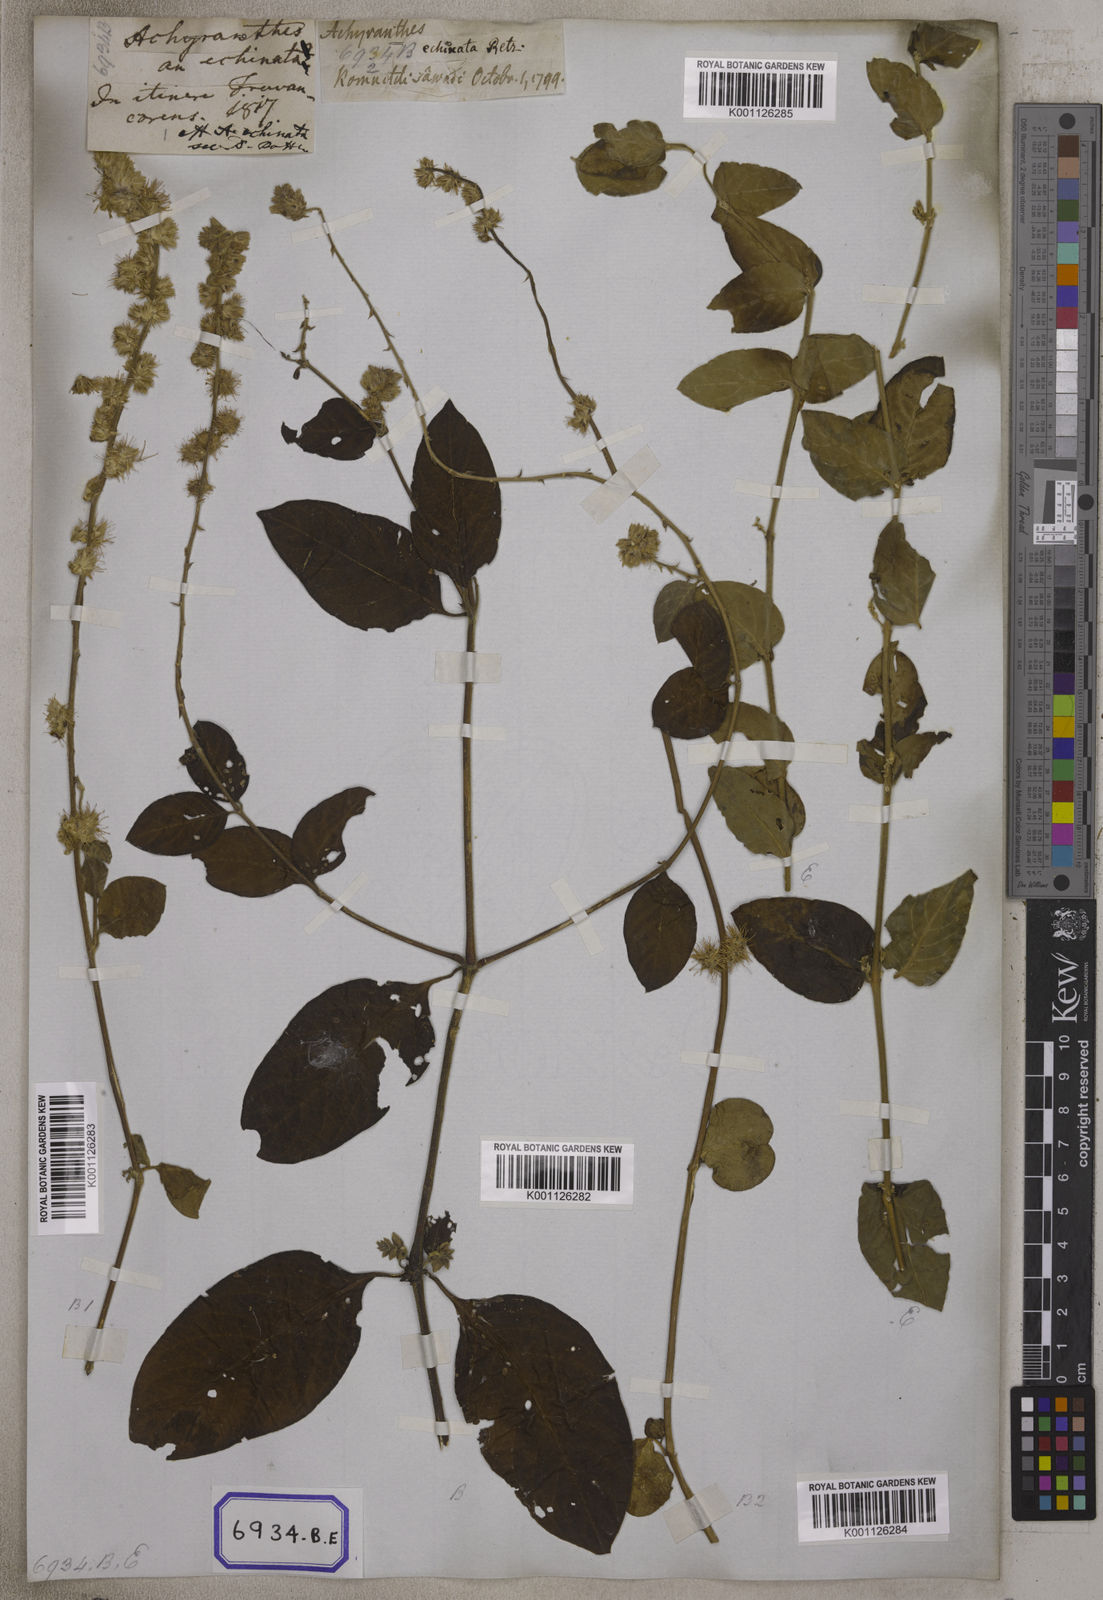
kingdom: Plantae
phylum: Tracheophyta
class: Magnoliopsida
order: Caryophyllales
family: Amaranthaceae
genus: Pupalia
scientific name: Pupalia lappacea
